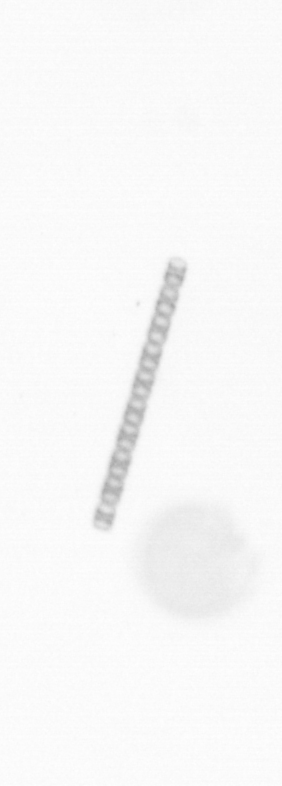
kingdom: Chromista
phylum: Ochrophyta
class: Bacillariophyceae
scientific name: Bacillariophyceae
